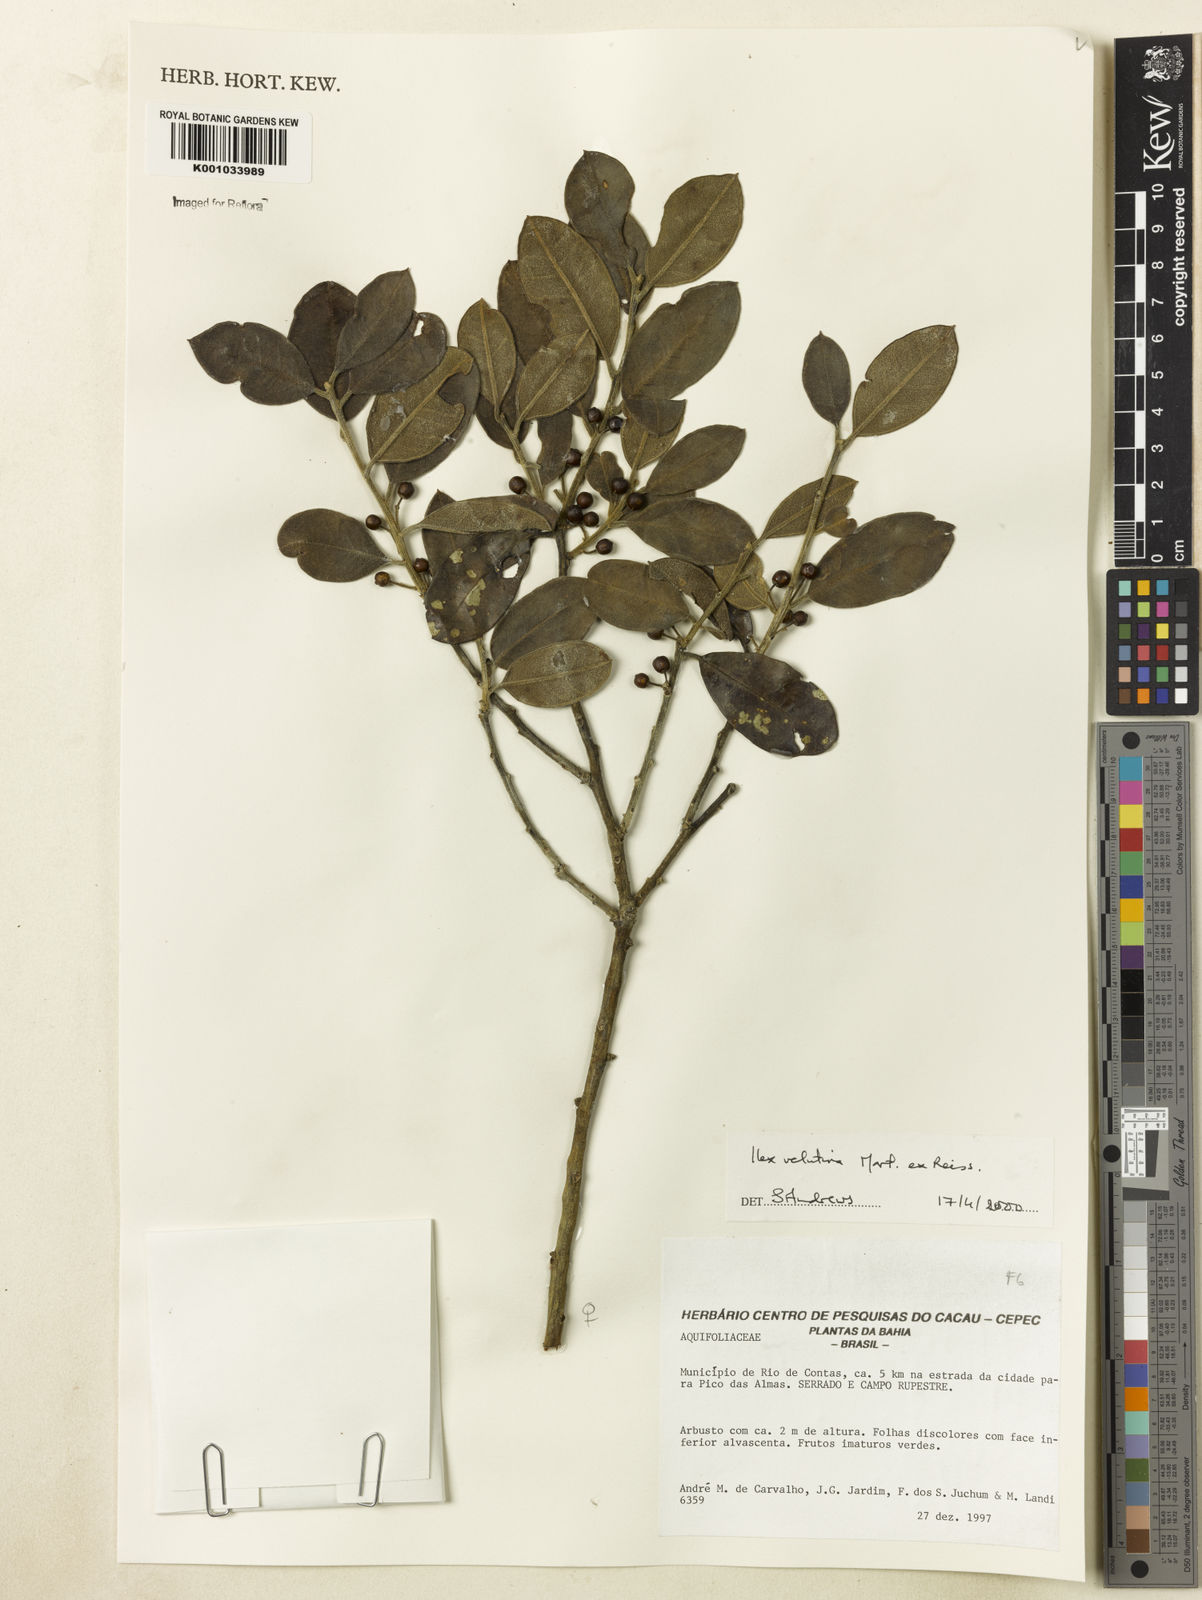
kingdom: Plantae
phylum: Tracheophyta
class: Magnoliopsida
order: Aquifoliales
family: Aquifoliaceae
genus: Ilex
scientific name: Ilex velutina
